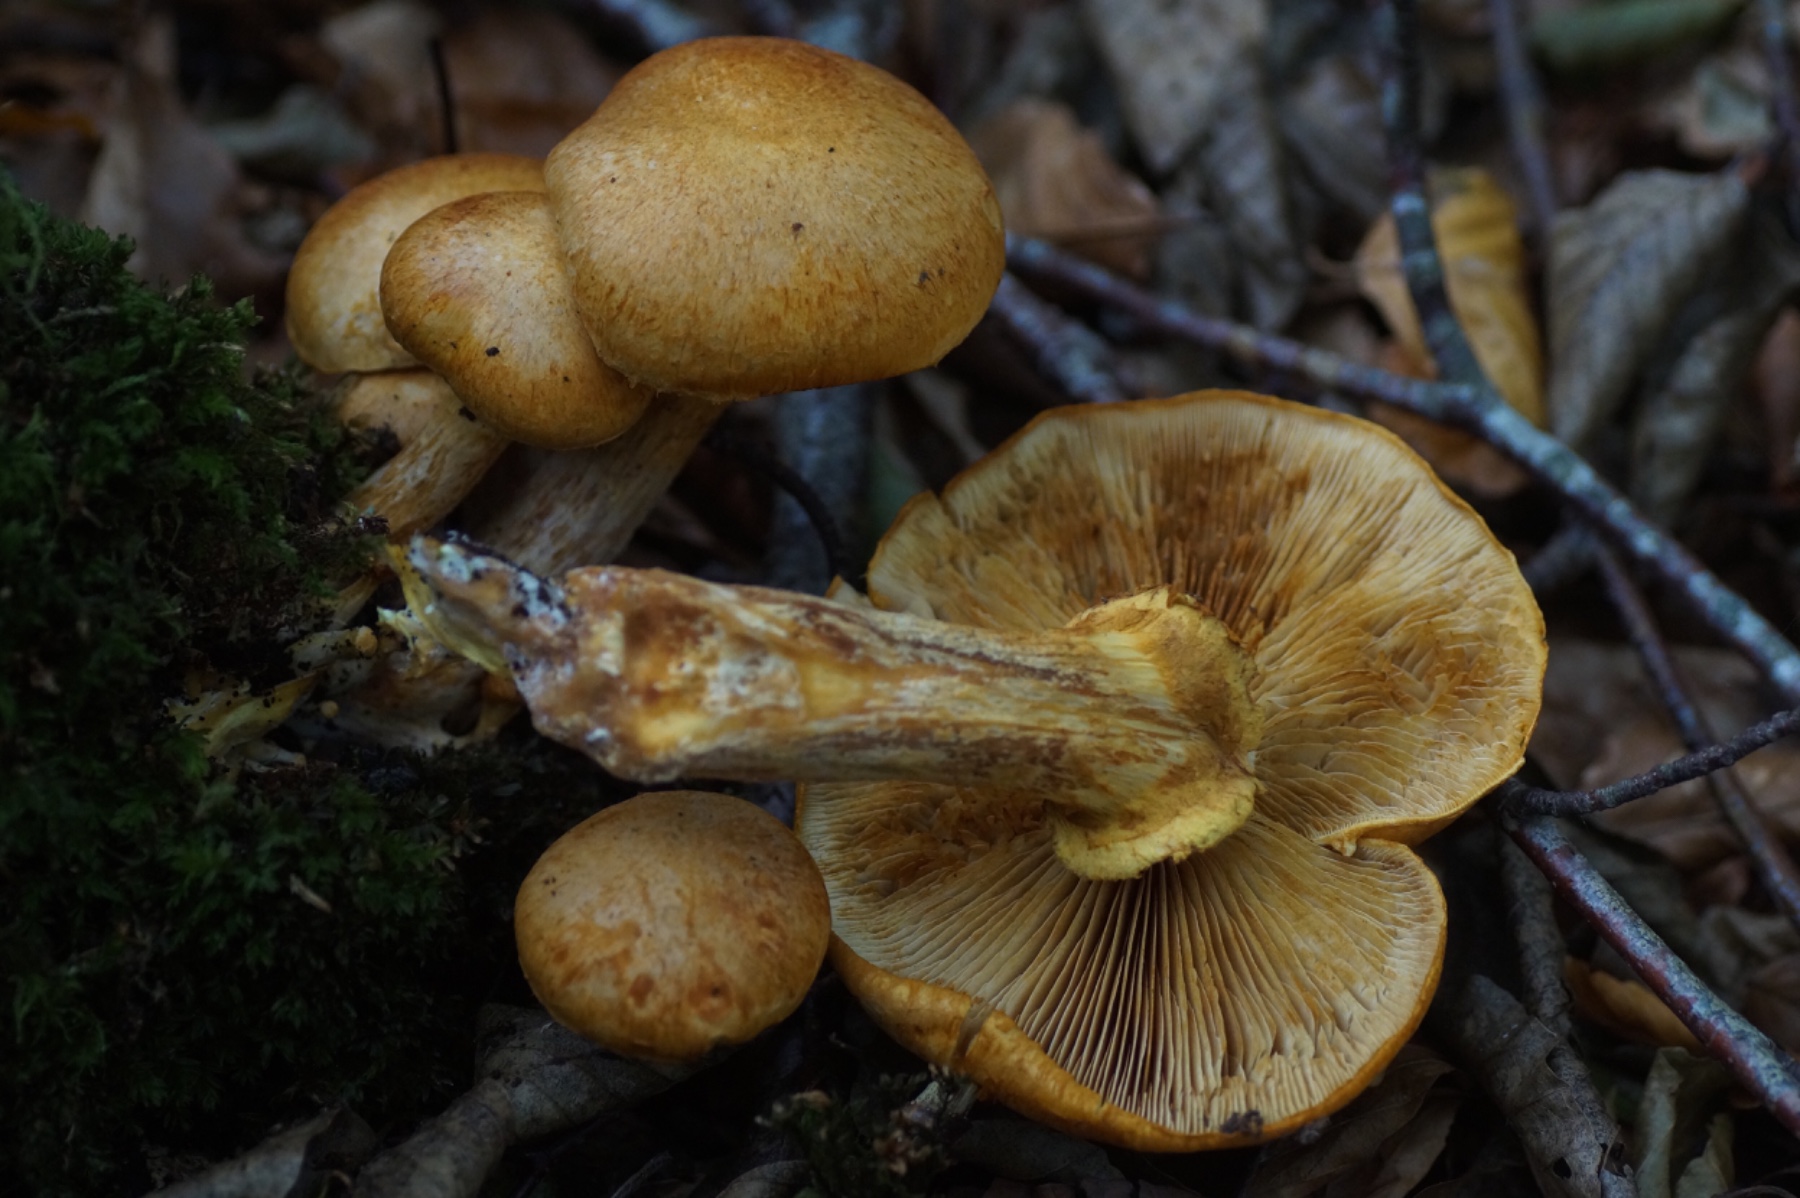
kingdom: Fungi
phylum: Basidiomycota
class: Agaricomycetes
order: Agaricales
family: Hymenogastraceae
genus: Gymnopilus
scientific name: Gymnopilus spectabilis
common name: fibret flammehat
